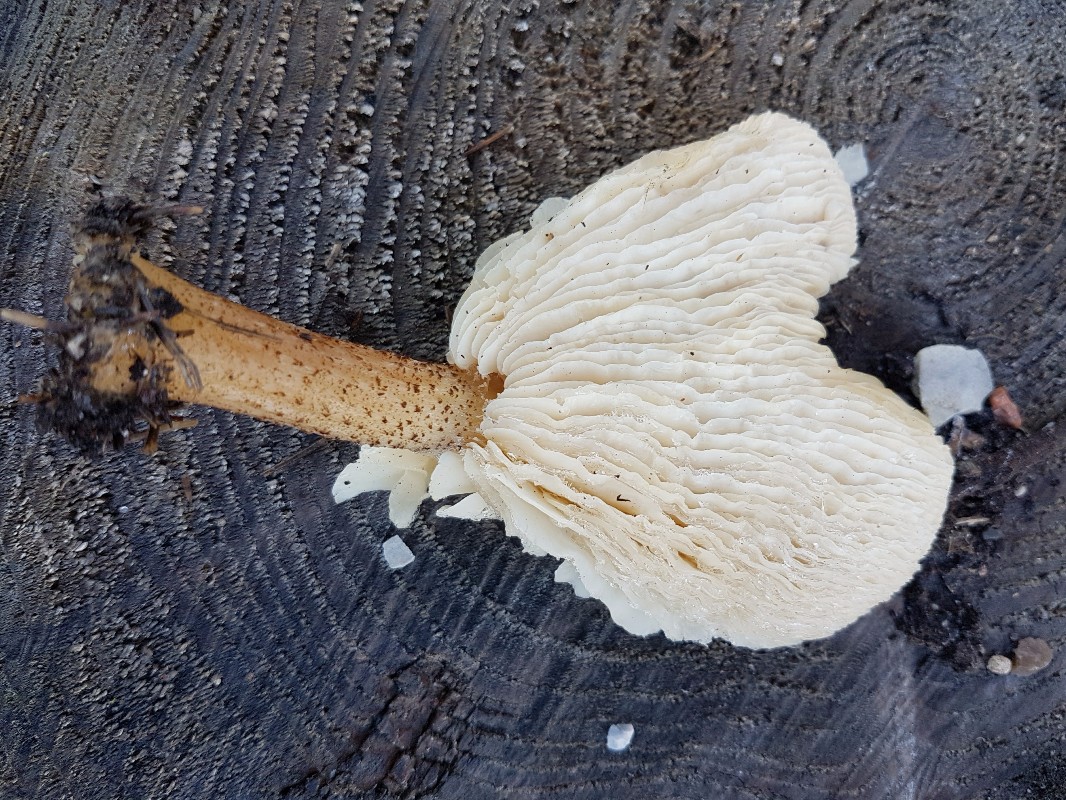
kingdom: Fungi
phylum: Basidiomycota
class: Agaricomycetes
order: Agaricales
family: Tricholomataceae
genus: Melanoleuca
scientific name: Melanoleuca verrucipes
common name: rufodet munkehat
